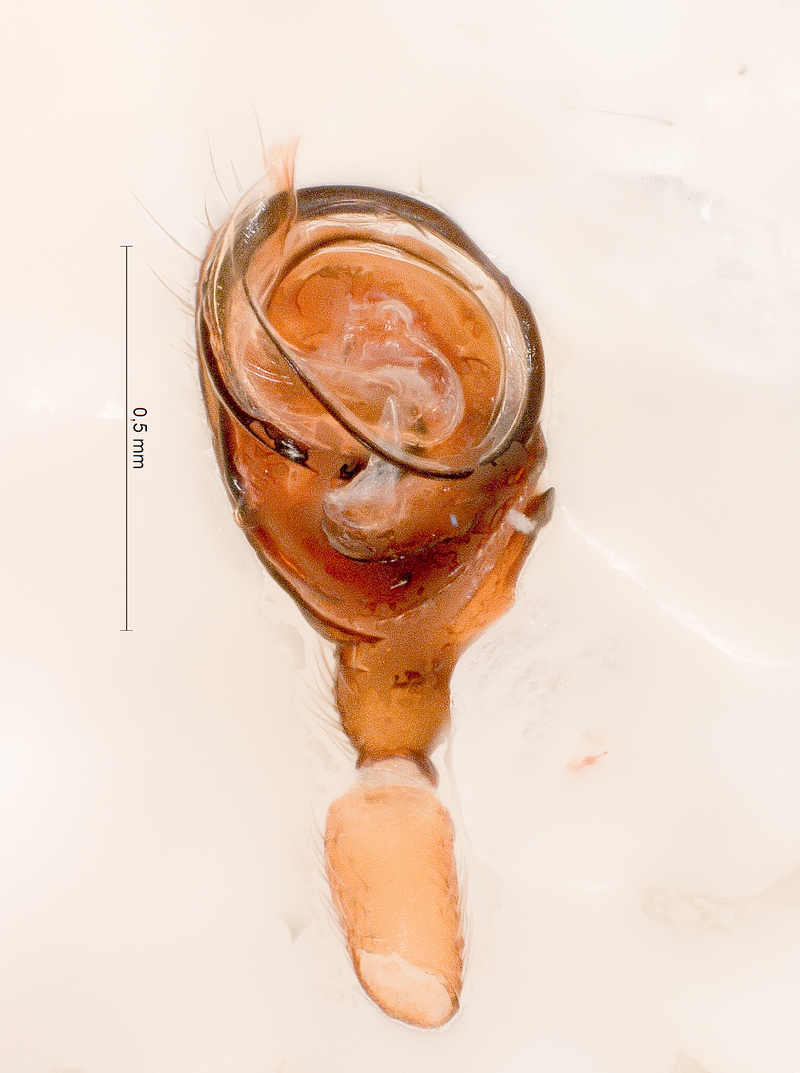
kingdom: Animalia
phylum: Arthropoda
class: Arachnida
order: Araneae
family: Linyphiidae
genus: Walckenaeria
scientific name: Walckenaeria obtusa
